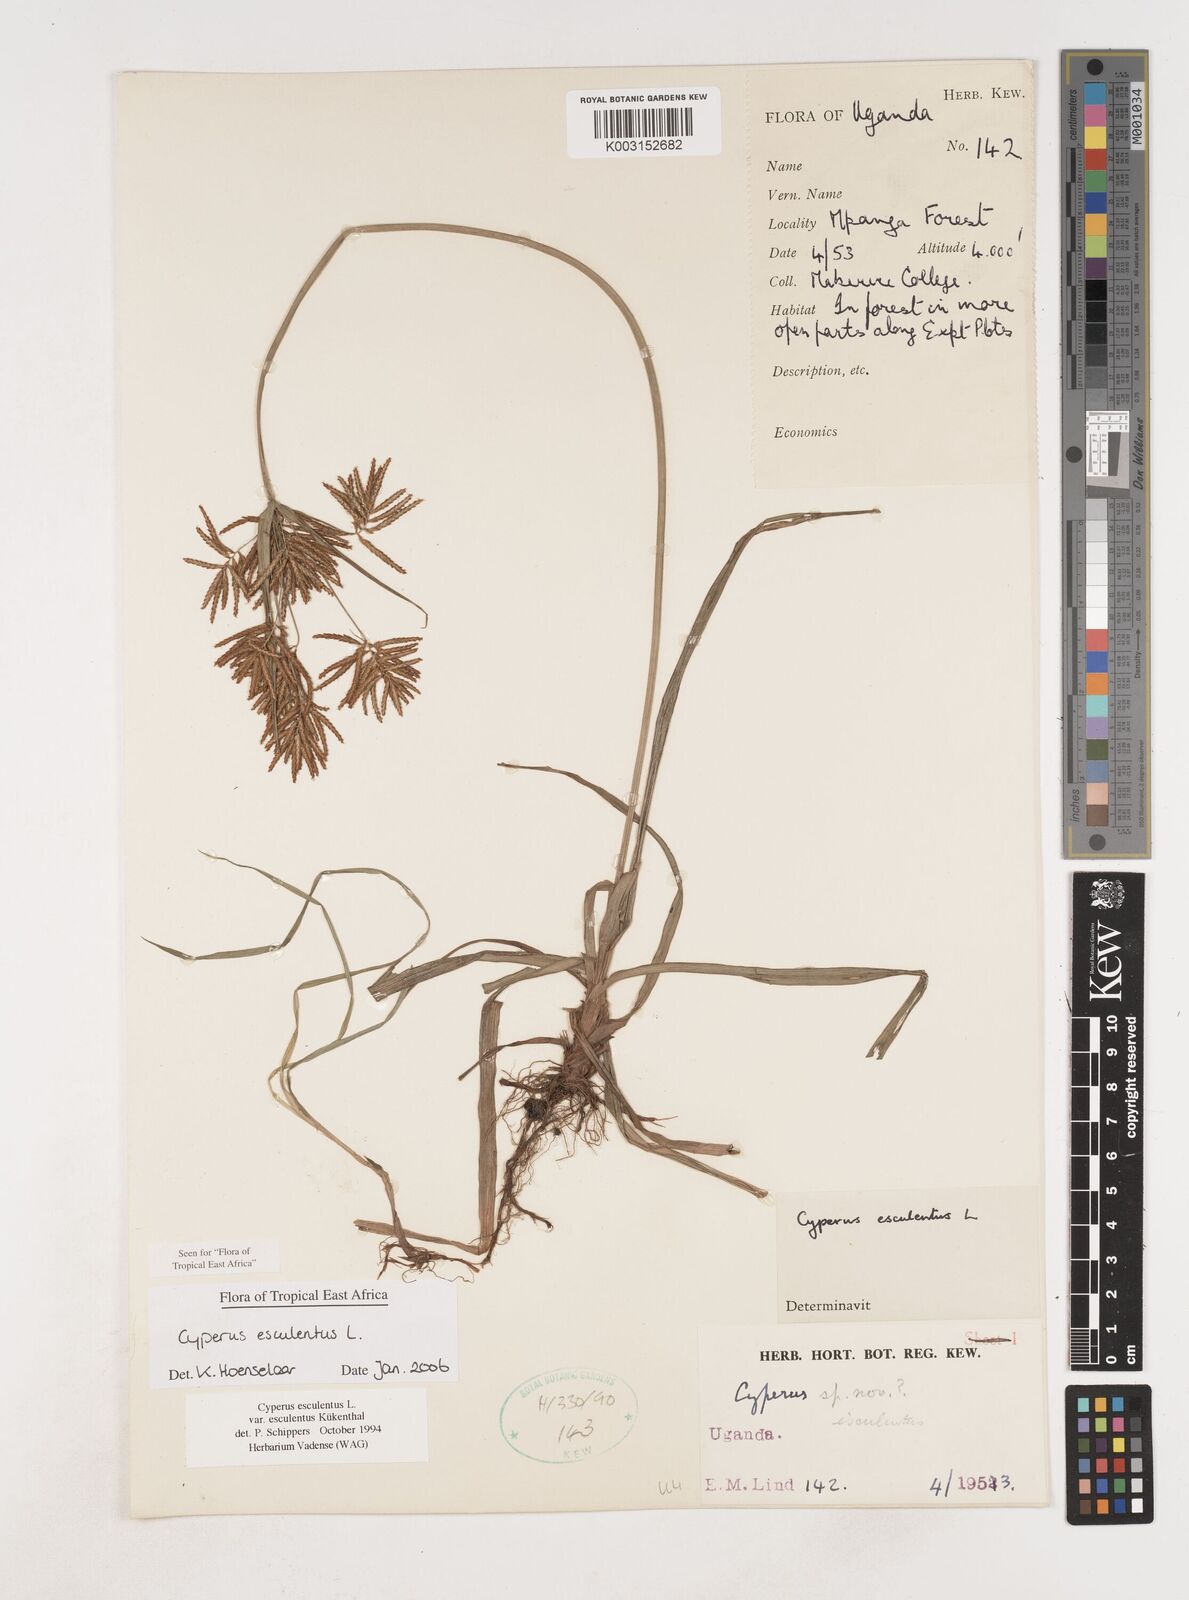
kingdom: Plantae
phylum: Tracheophyta
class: Liliopsida
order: Poales
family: Cyperaceae
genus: Cyperus
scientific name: Cyperus esculentus
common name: Yellow nutsedge
